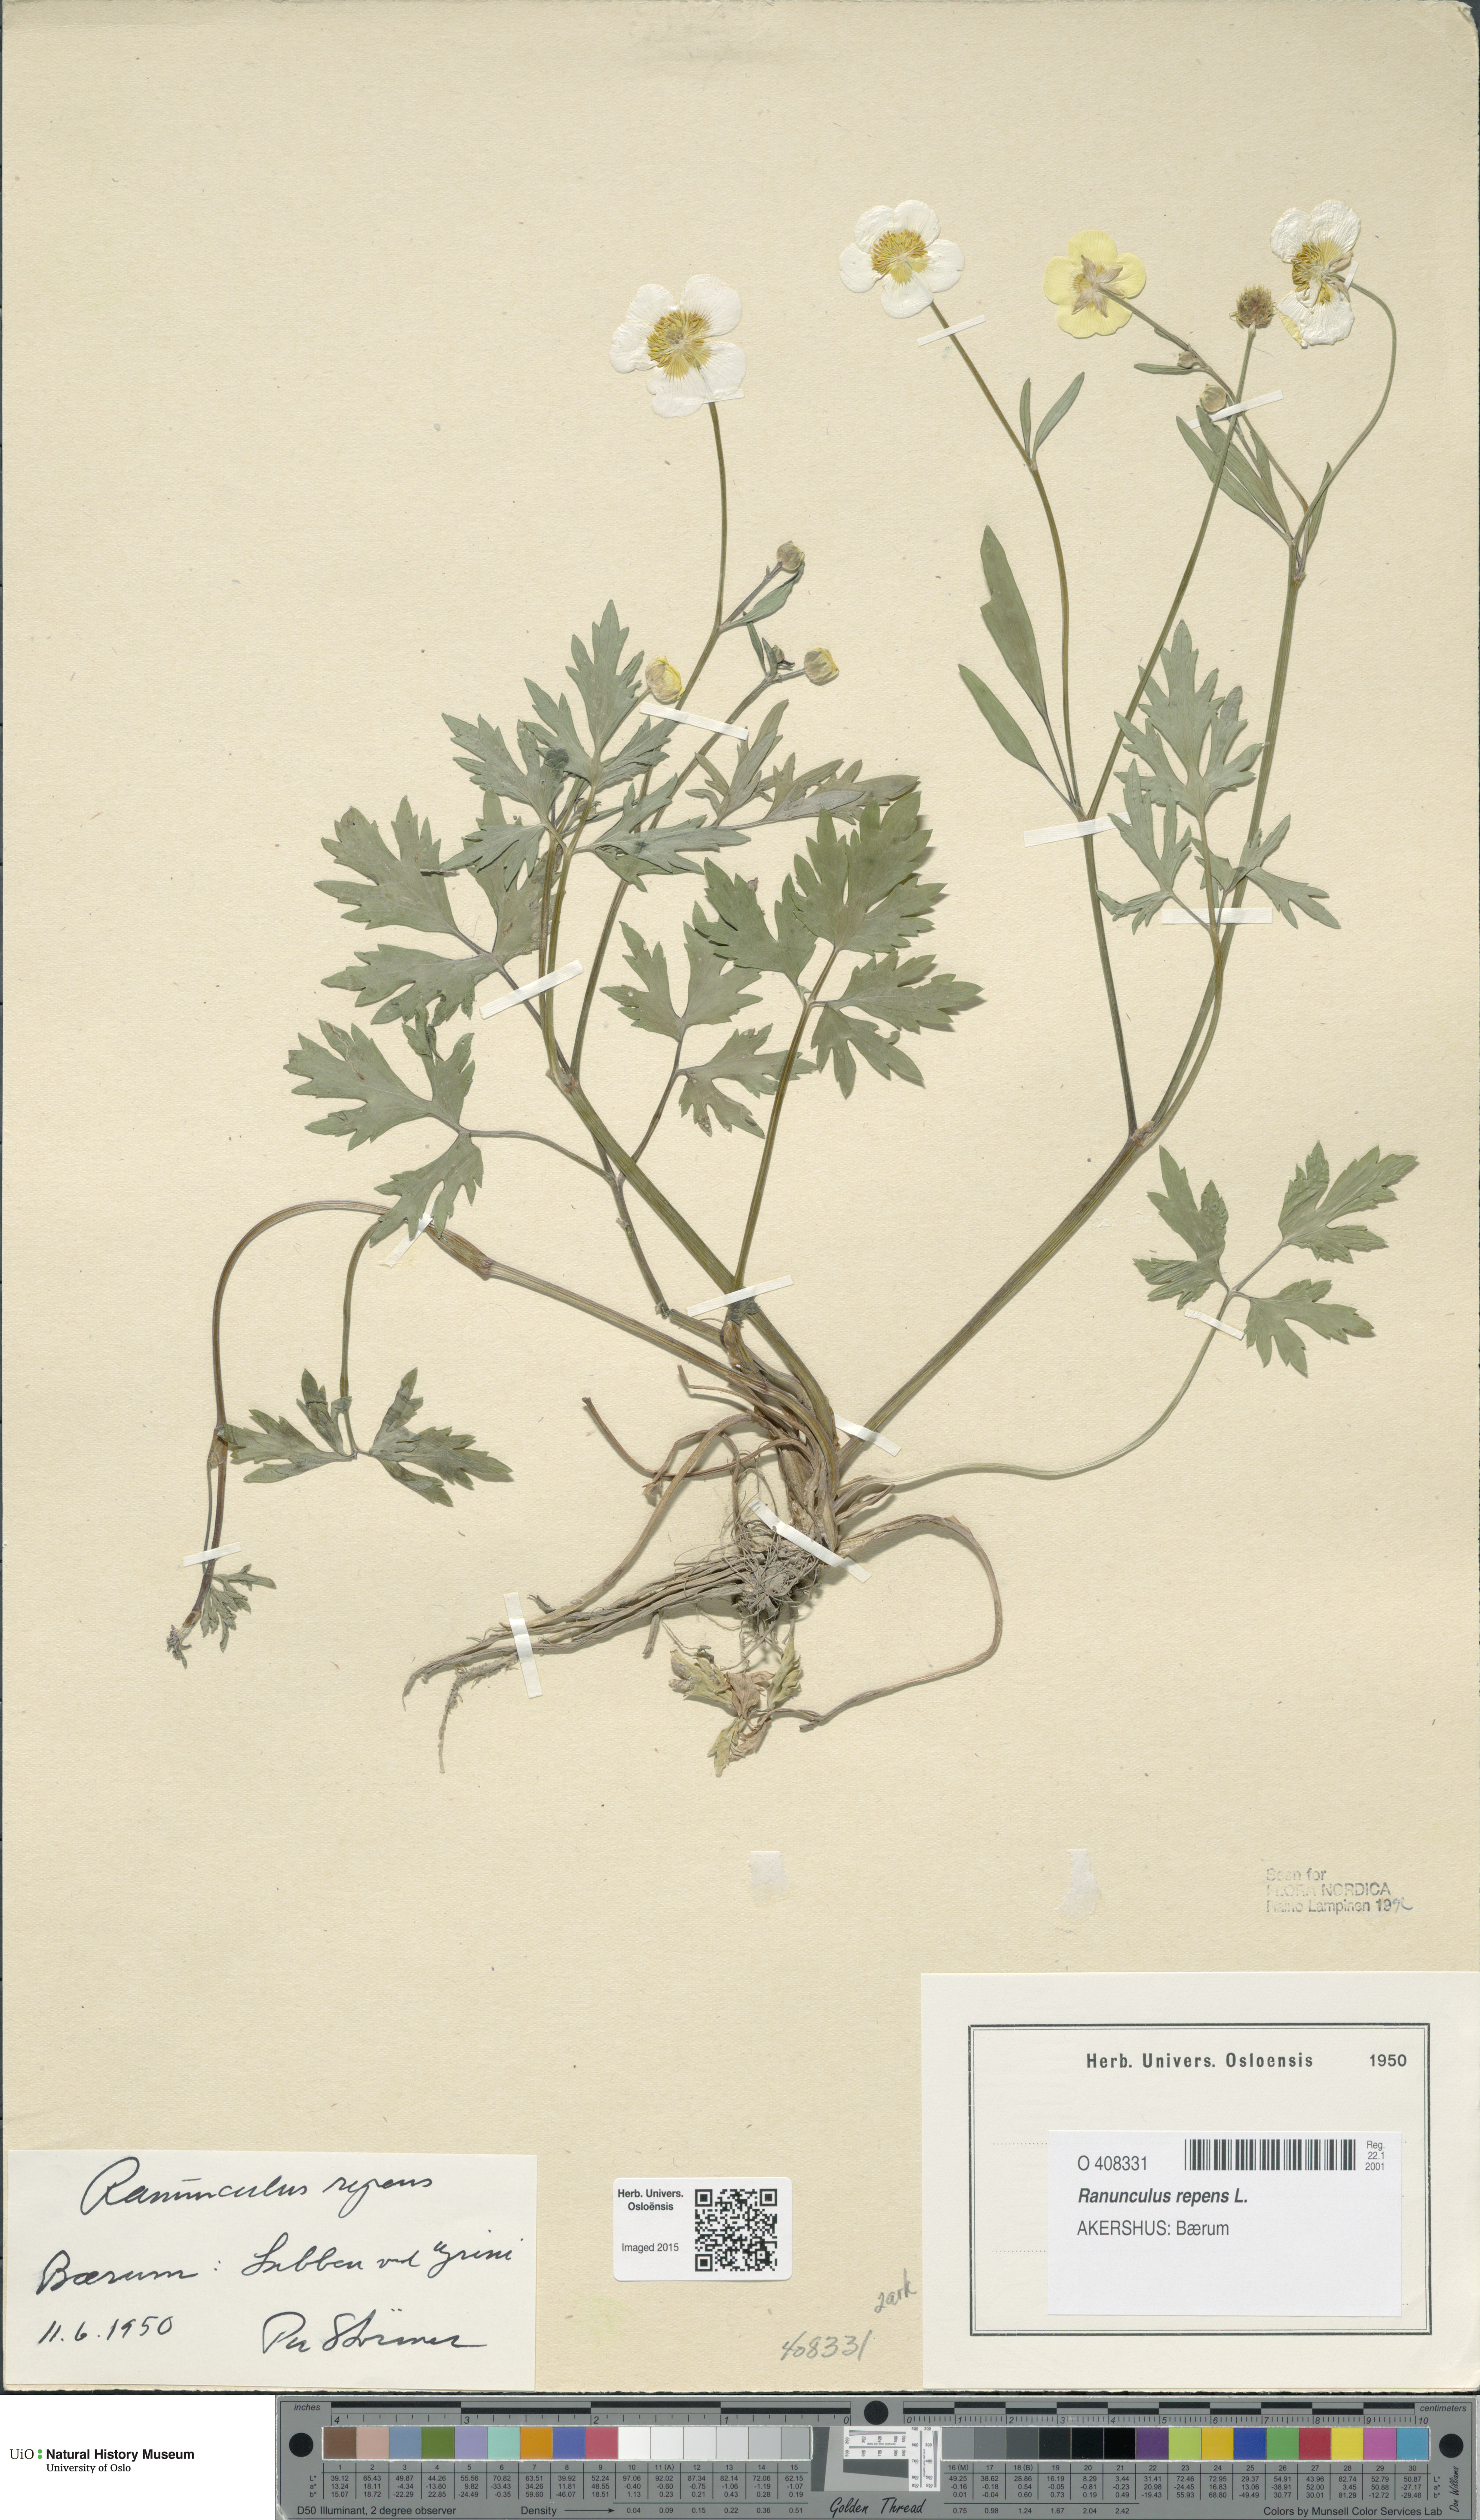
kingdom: Plantae
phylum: Tracheophyta
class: Magnoliopsida
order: Ranunculales
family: Ranunculaceae
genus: Ranunculus
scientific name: Ranunculus repens
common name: Creeping buttercup
